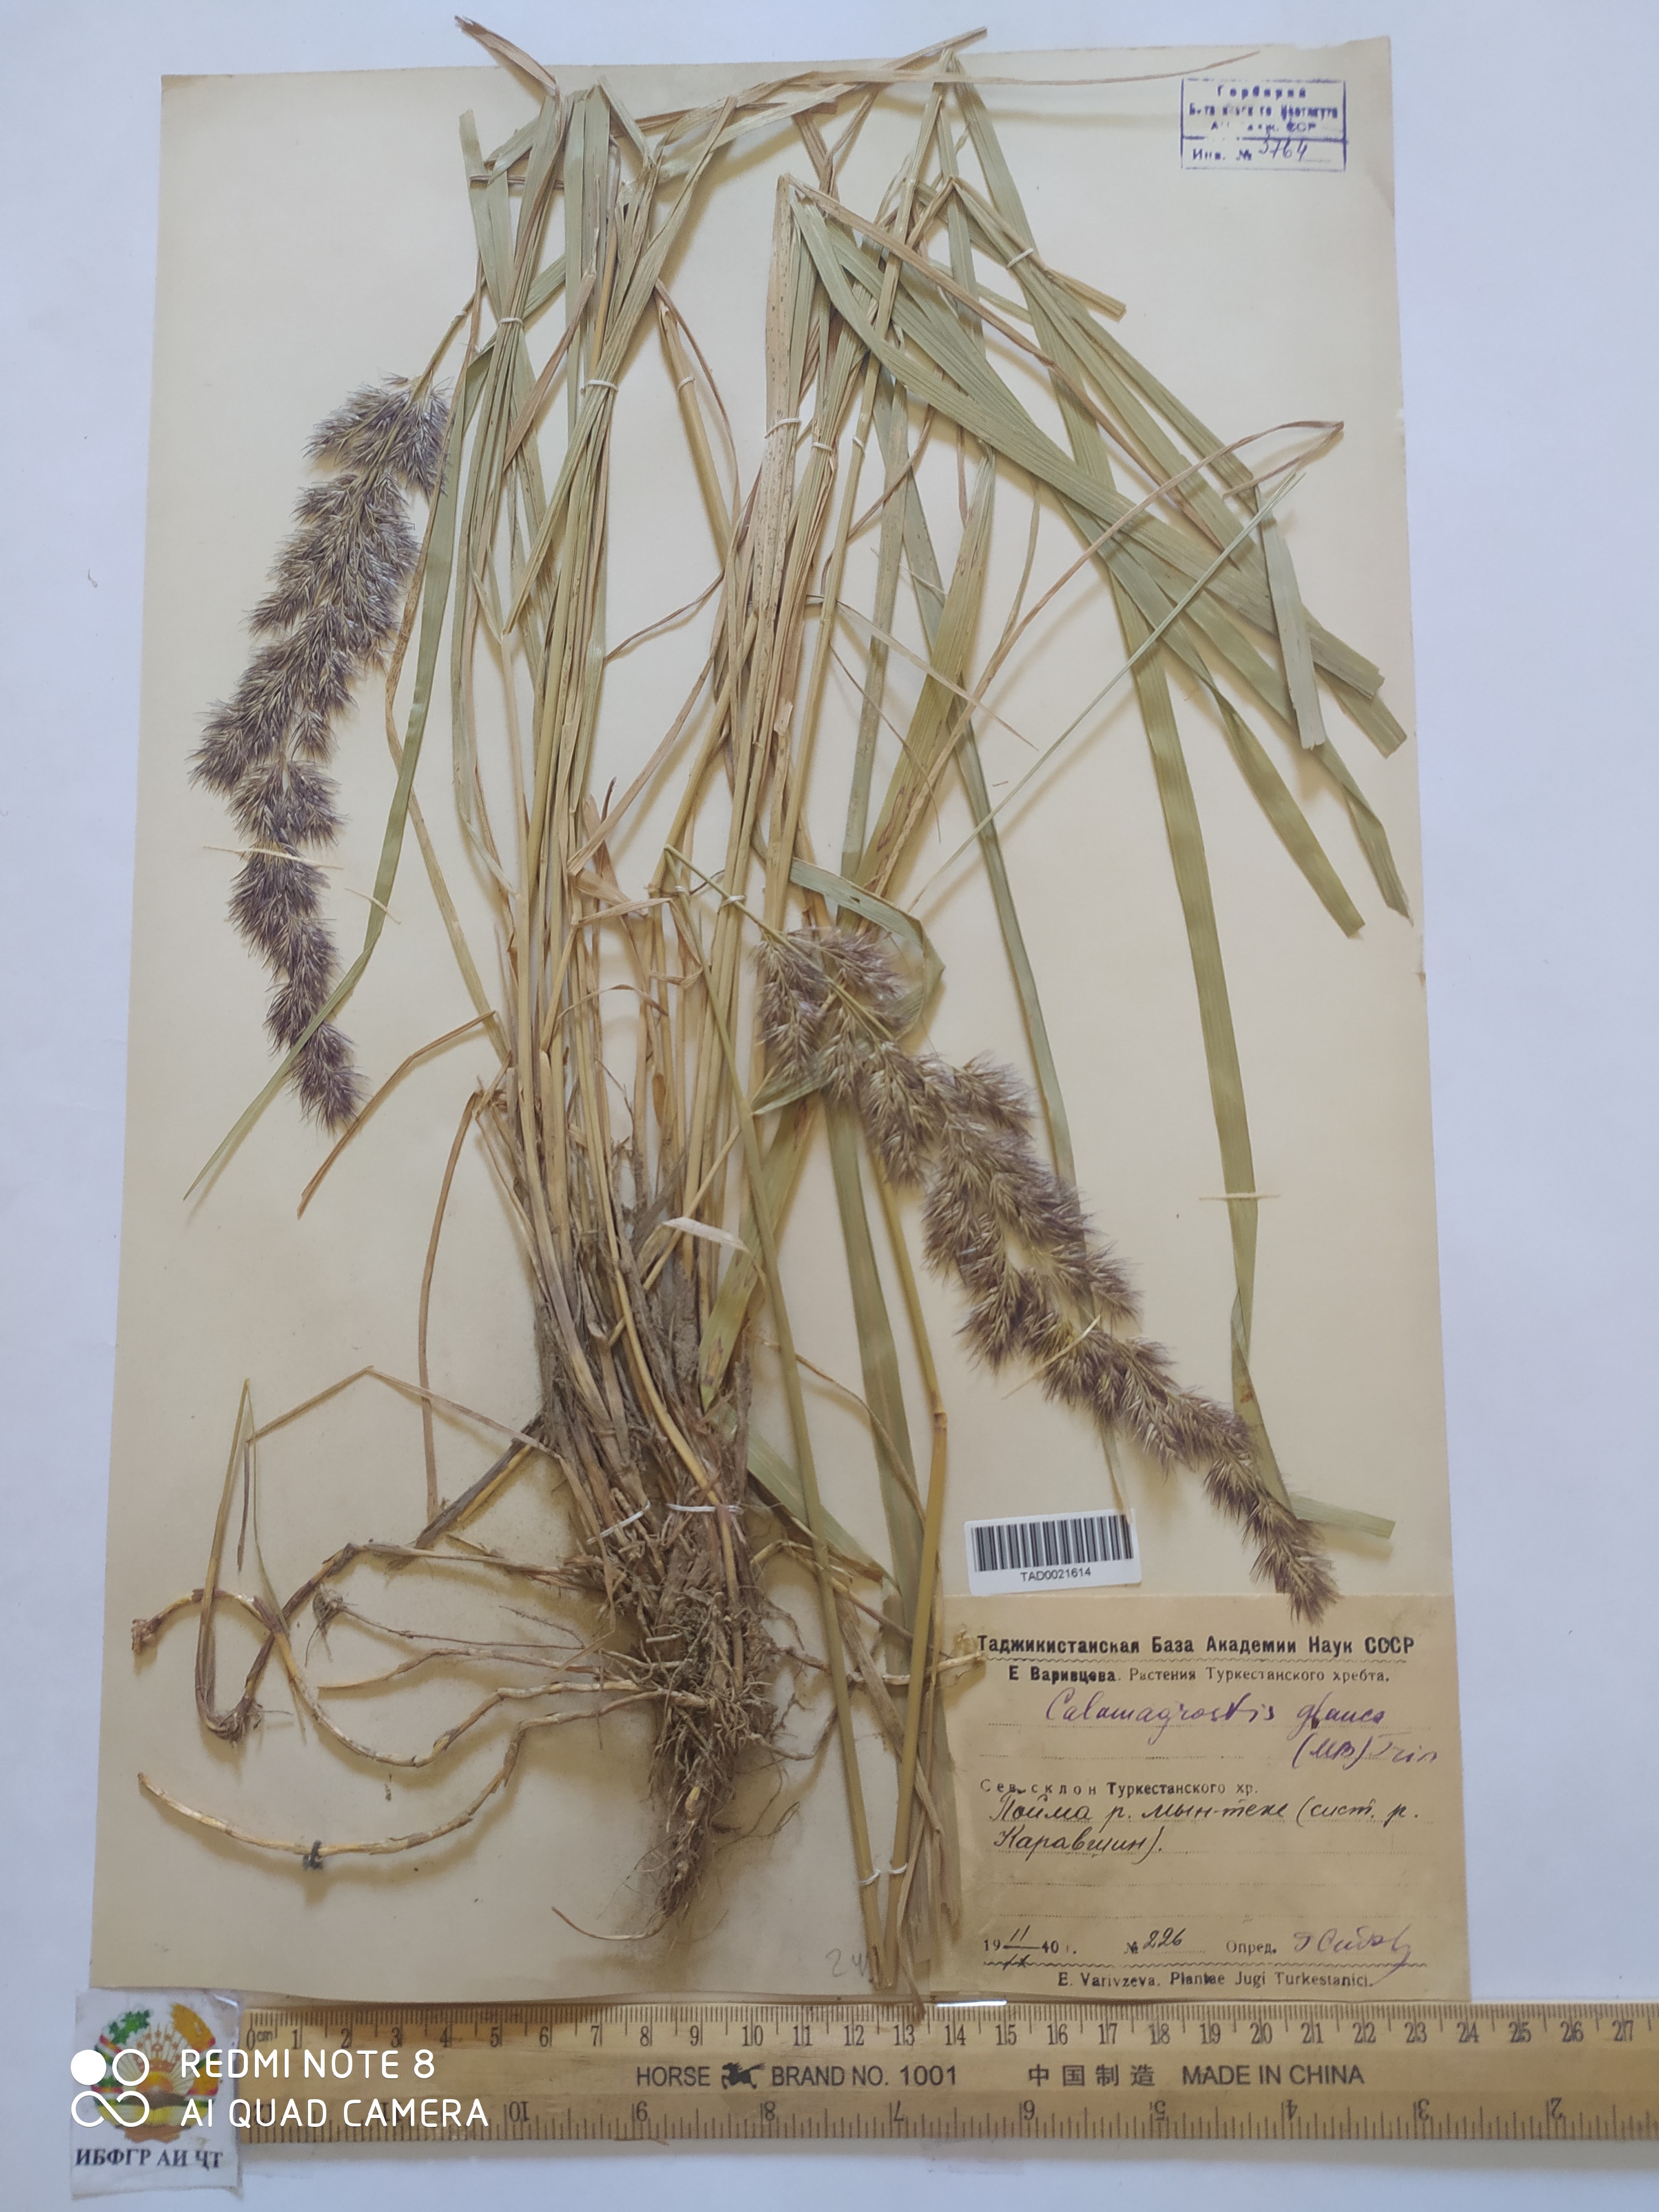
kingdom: Plantae
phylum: Tracheophyta
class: Liliopsida
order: Poales
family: Poaceae
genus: Calamagrostis
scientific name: Calamagrostis pseudophragmites
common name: Coastal small-reed
